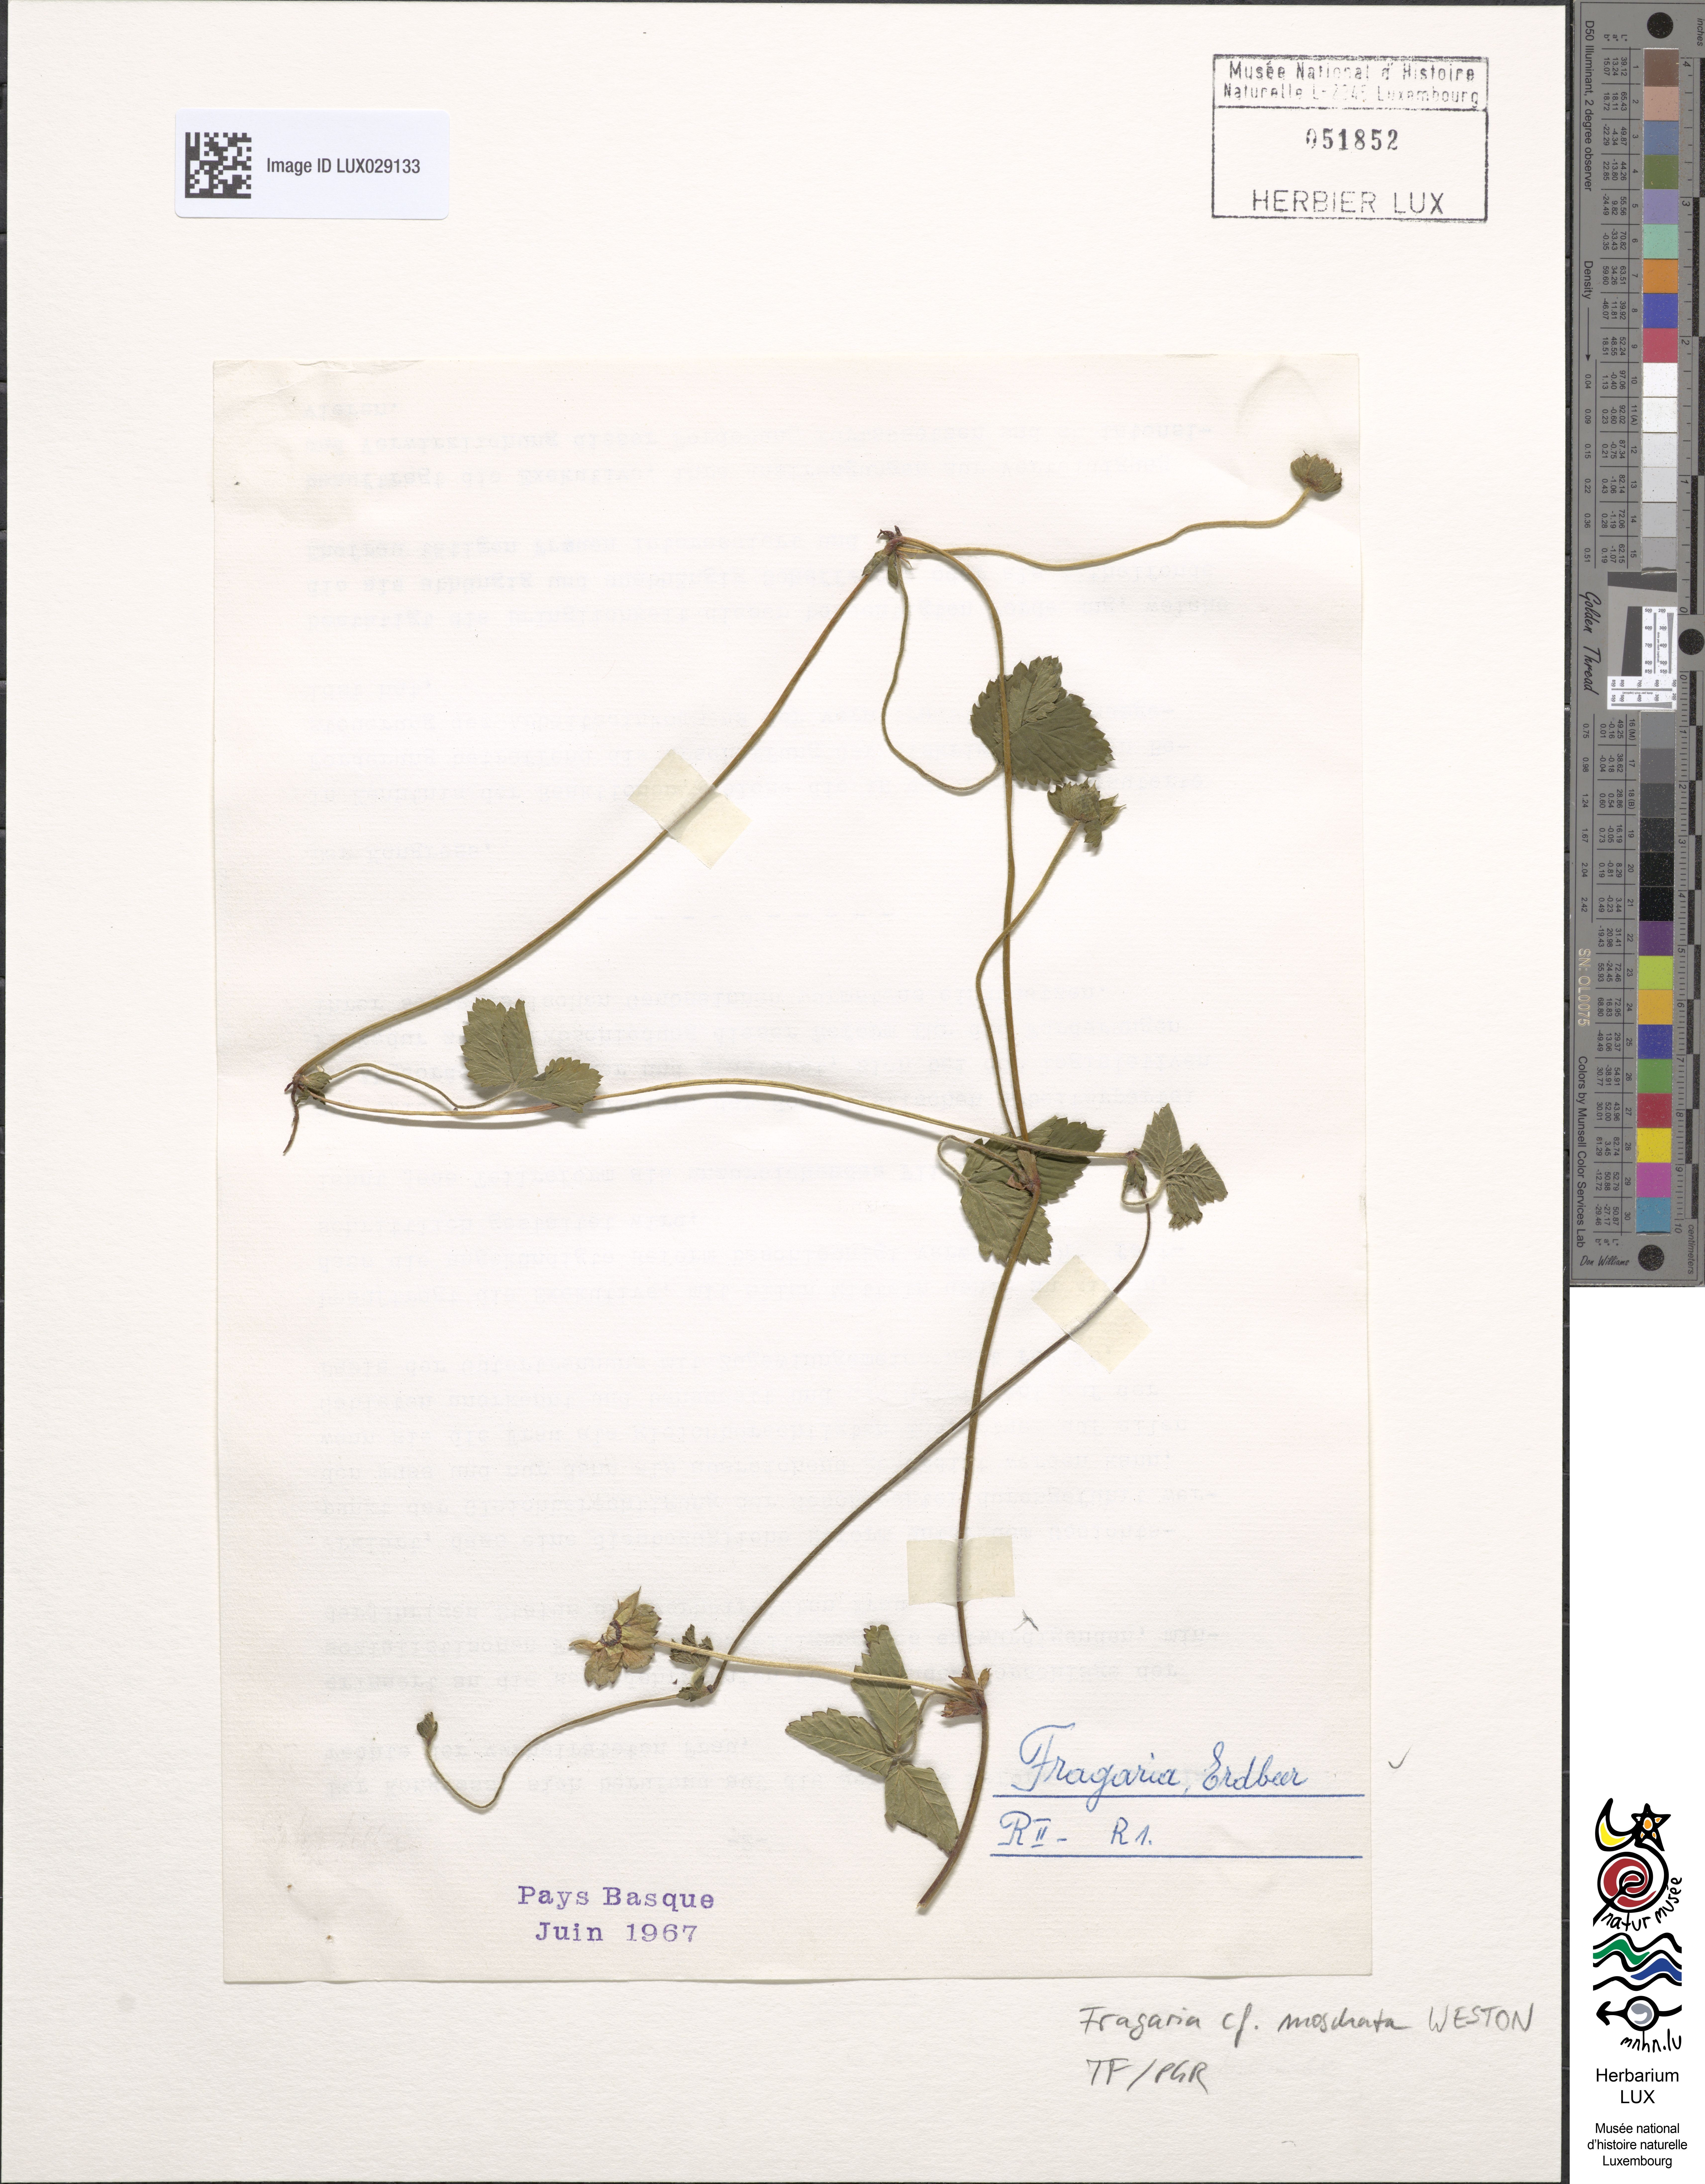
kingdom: Plantae
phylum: Tracheophyta
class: Magnoliopsida
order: Rosales
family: Rosaceae
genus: Fragaria
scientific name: Fragaria moschata
